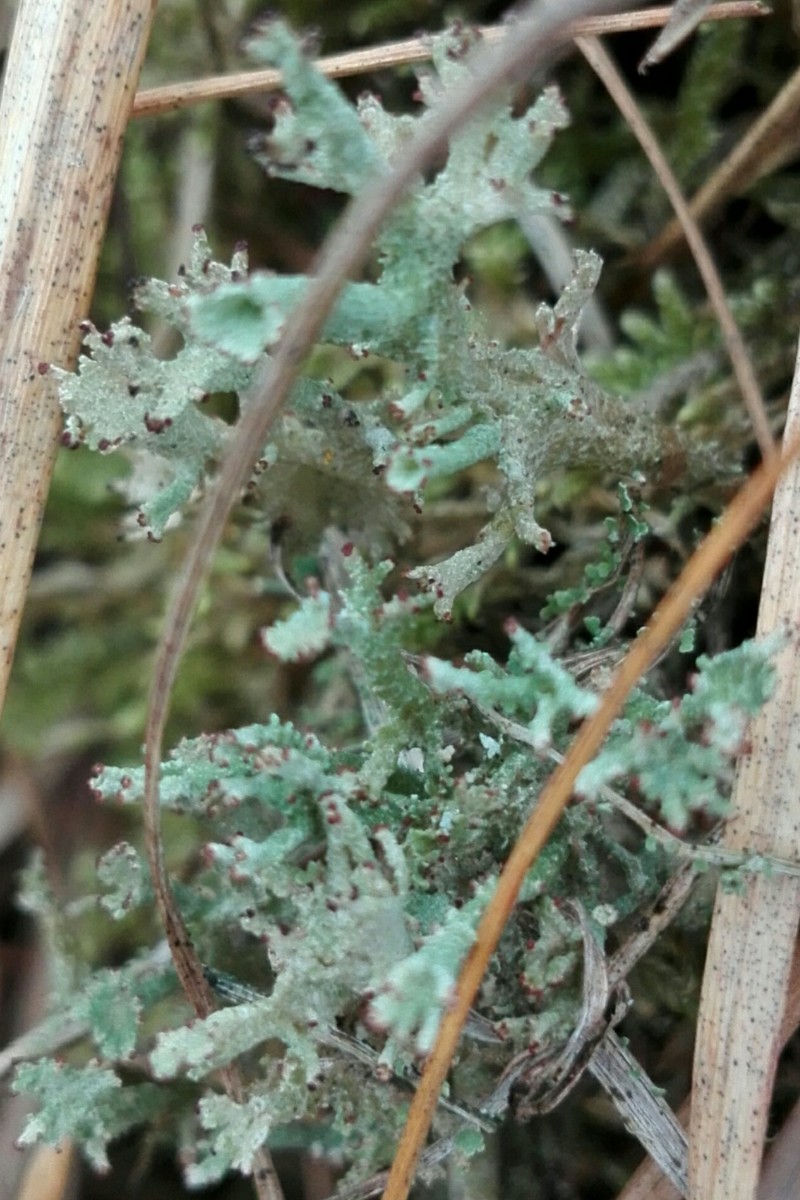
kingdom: Fungi
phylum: Ascomycota
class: Lecanoromycetes
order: Lecanorales
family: Cladoniaceae
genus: Cladonia
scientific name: Cladonia
